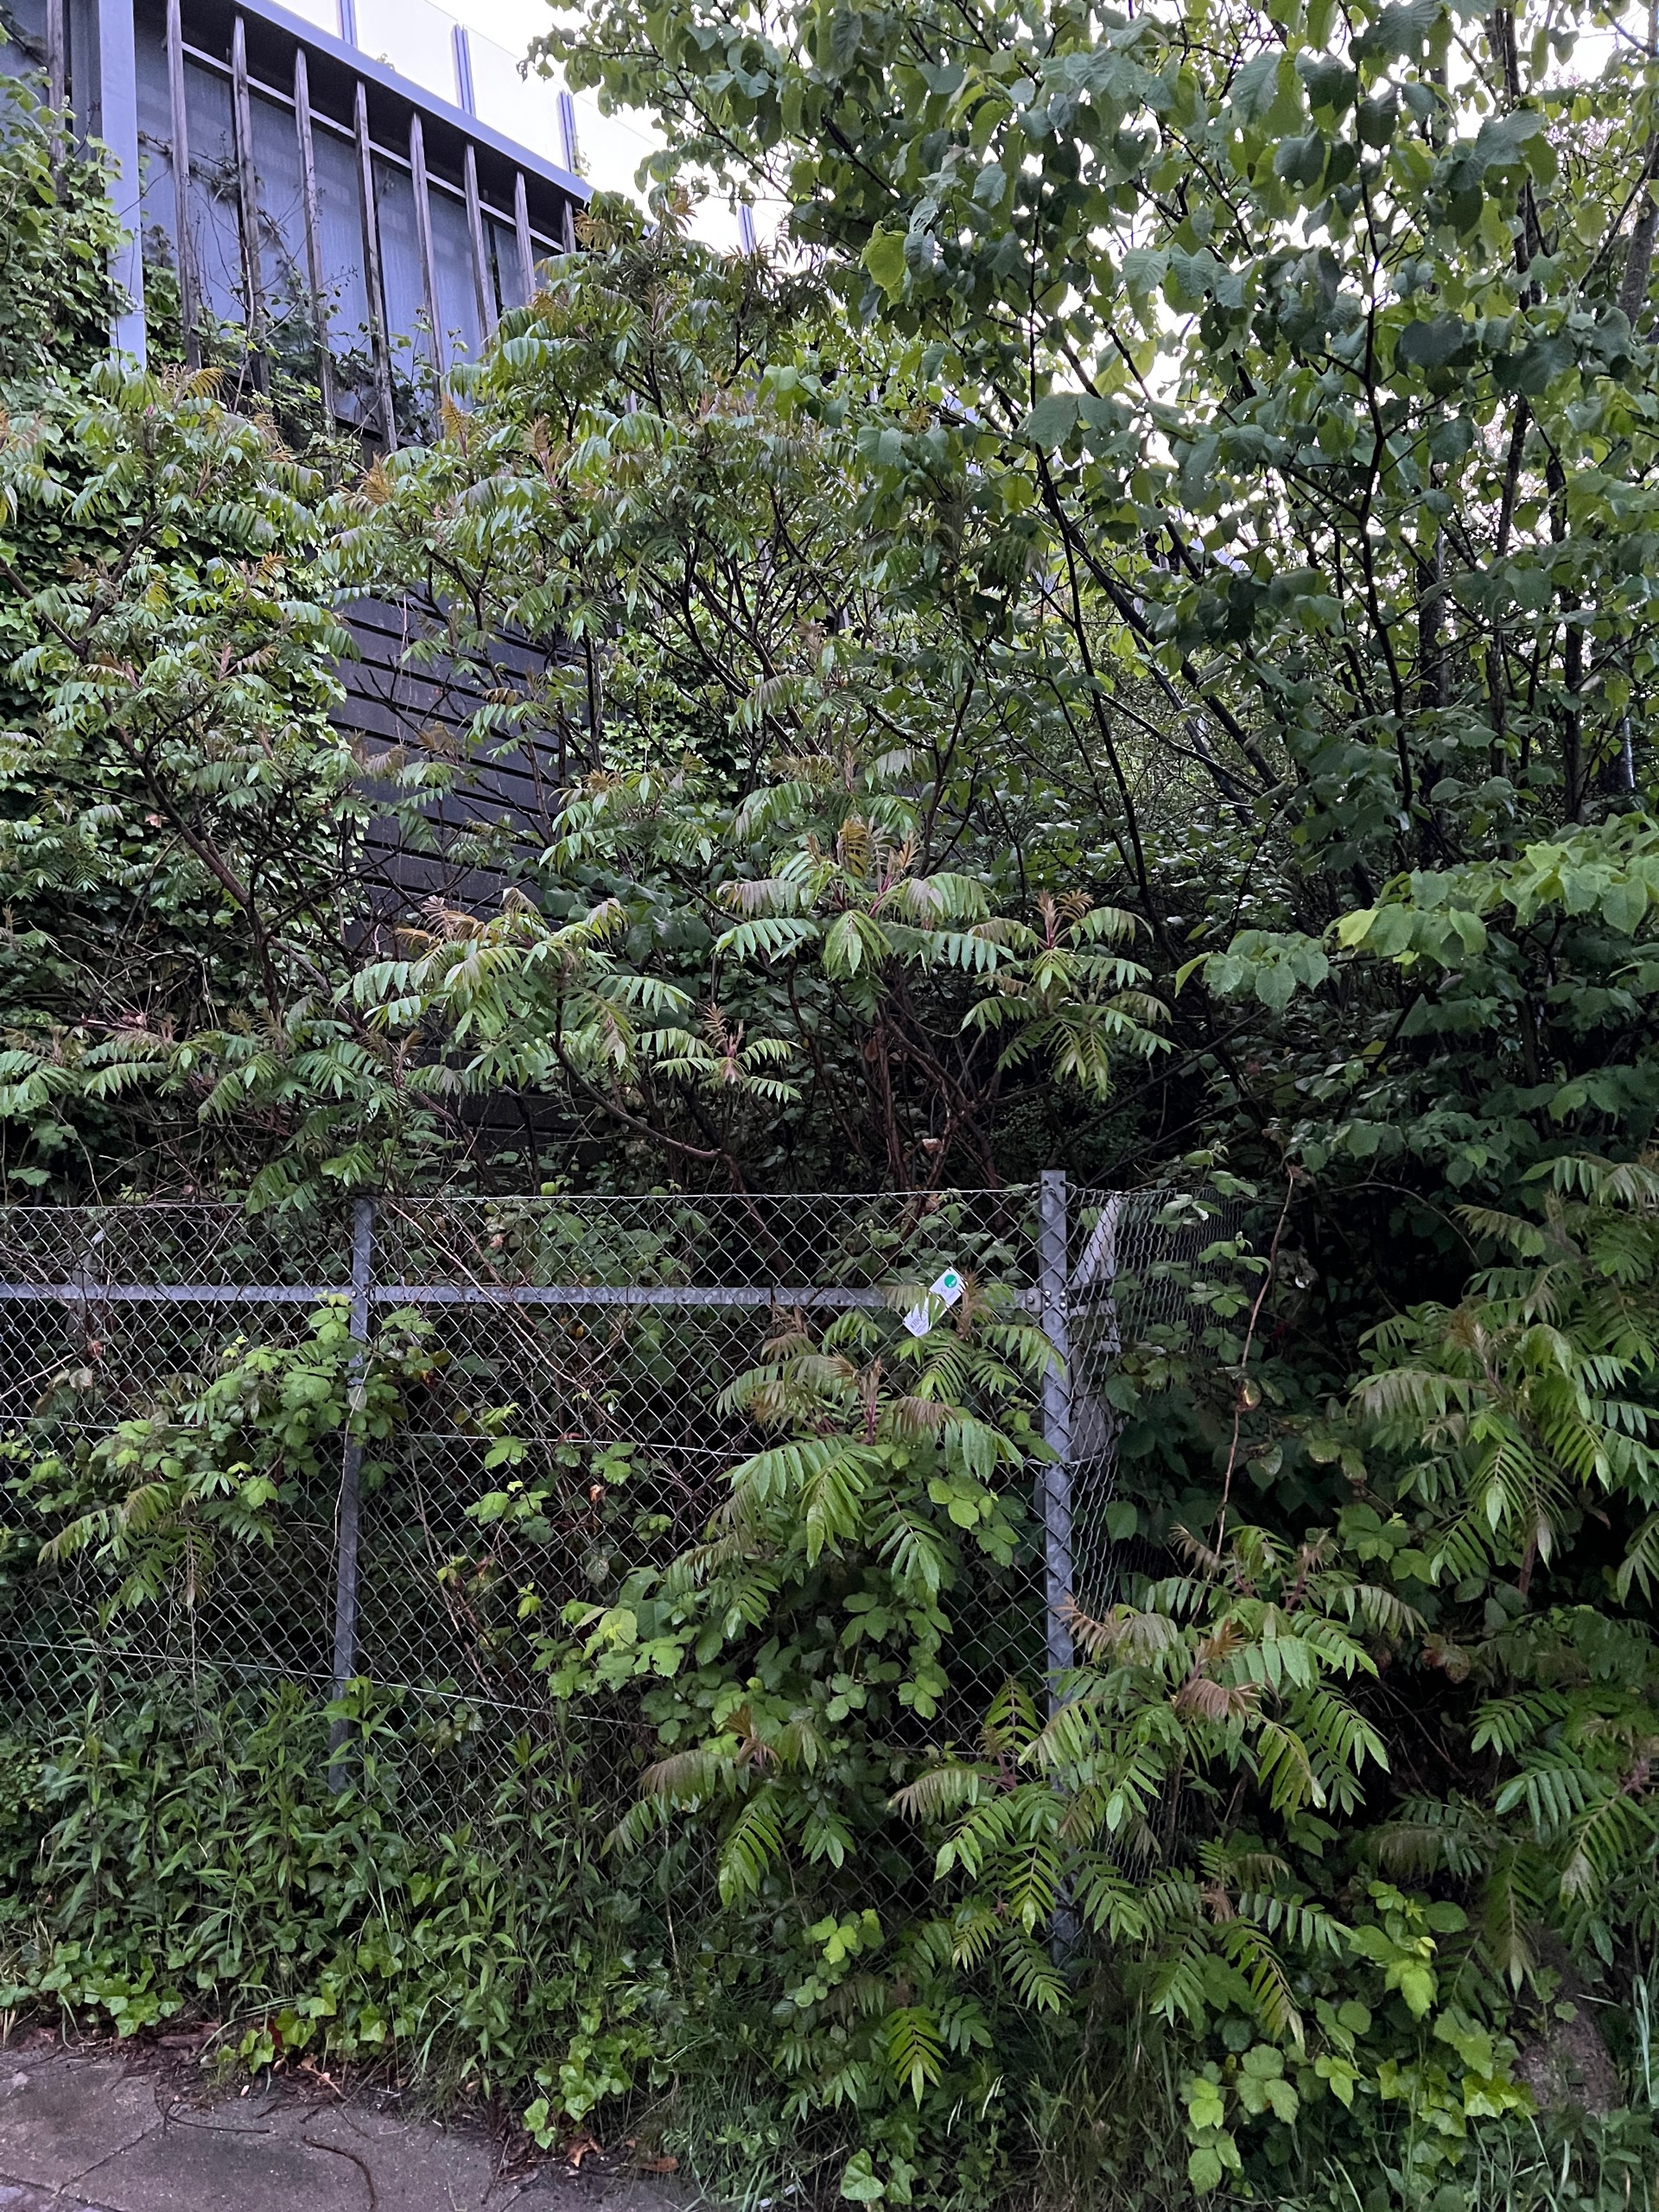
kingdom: Plantae
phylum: Tracheophyta
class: Magnoliopsida
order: Sapindales
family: Anacardiaceae
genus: Rhus
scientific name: Rhus typhina
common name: Hjortetaktræ
